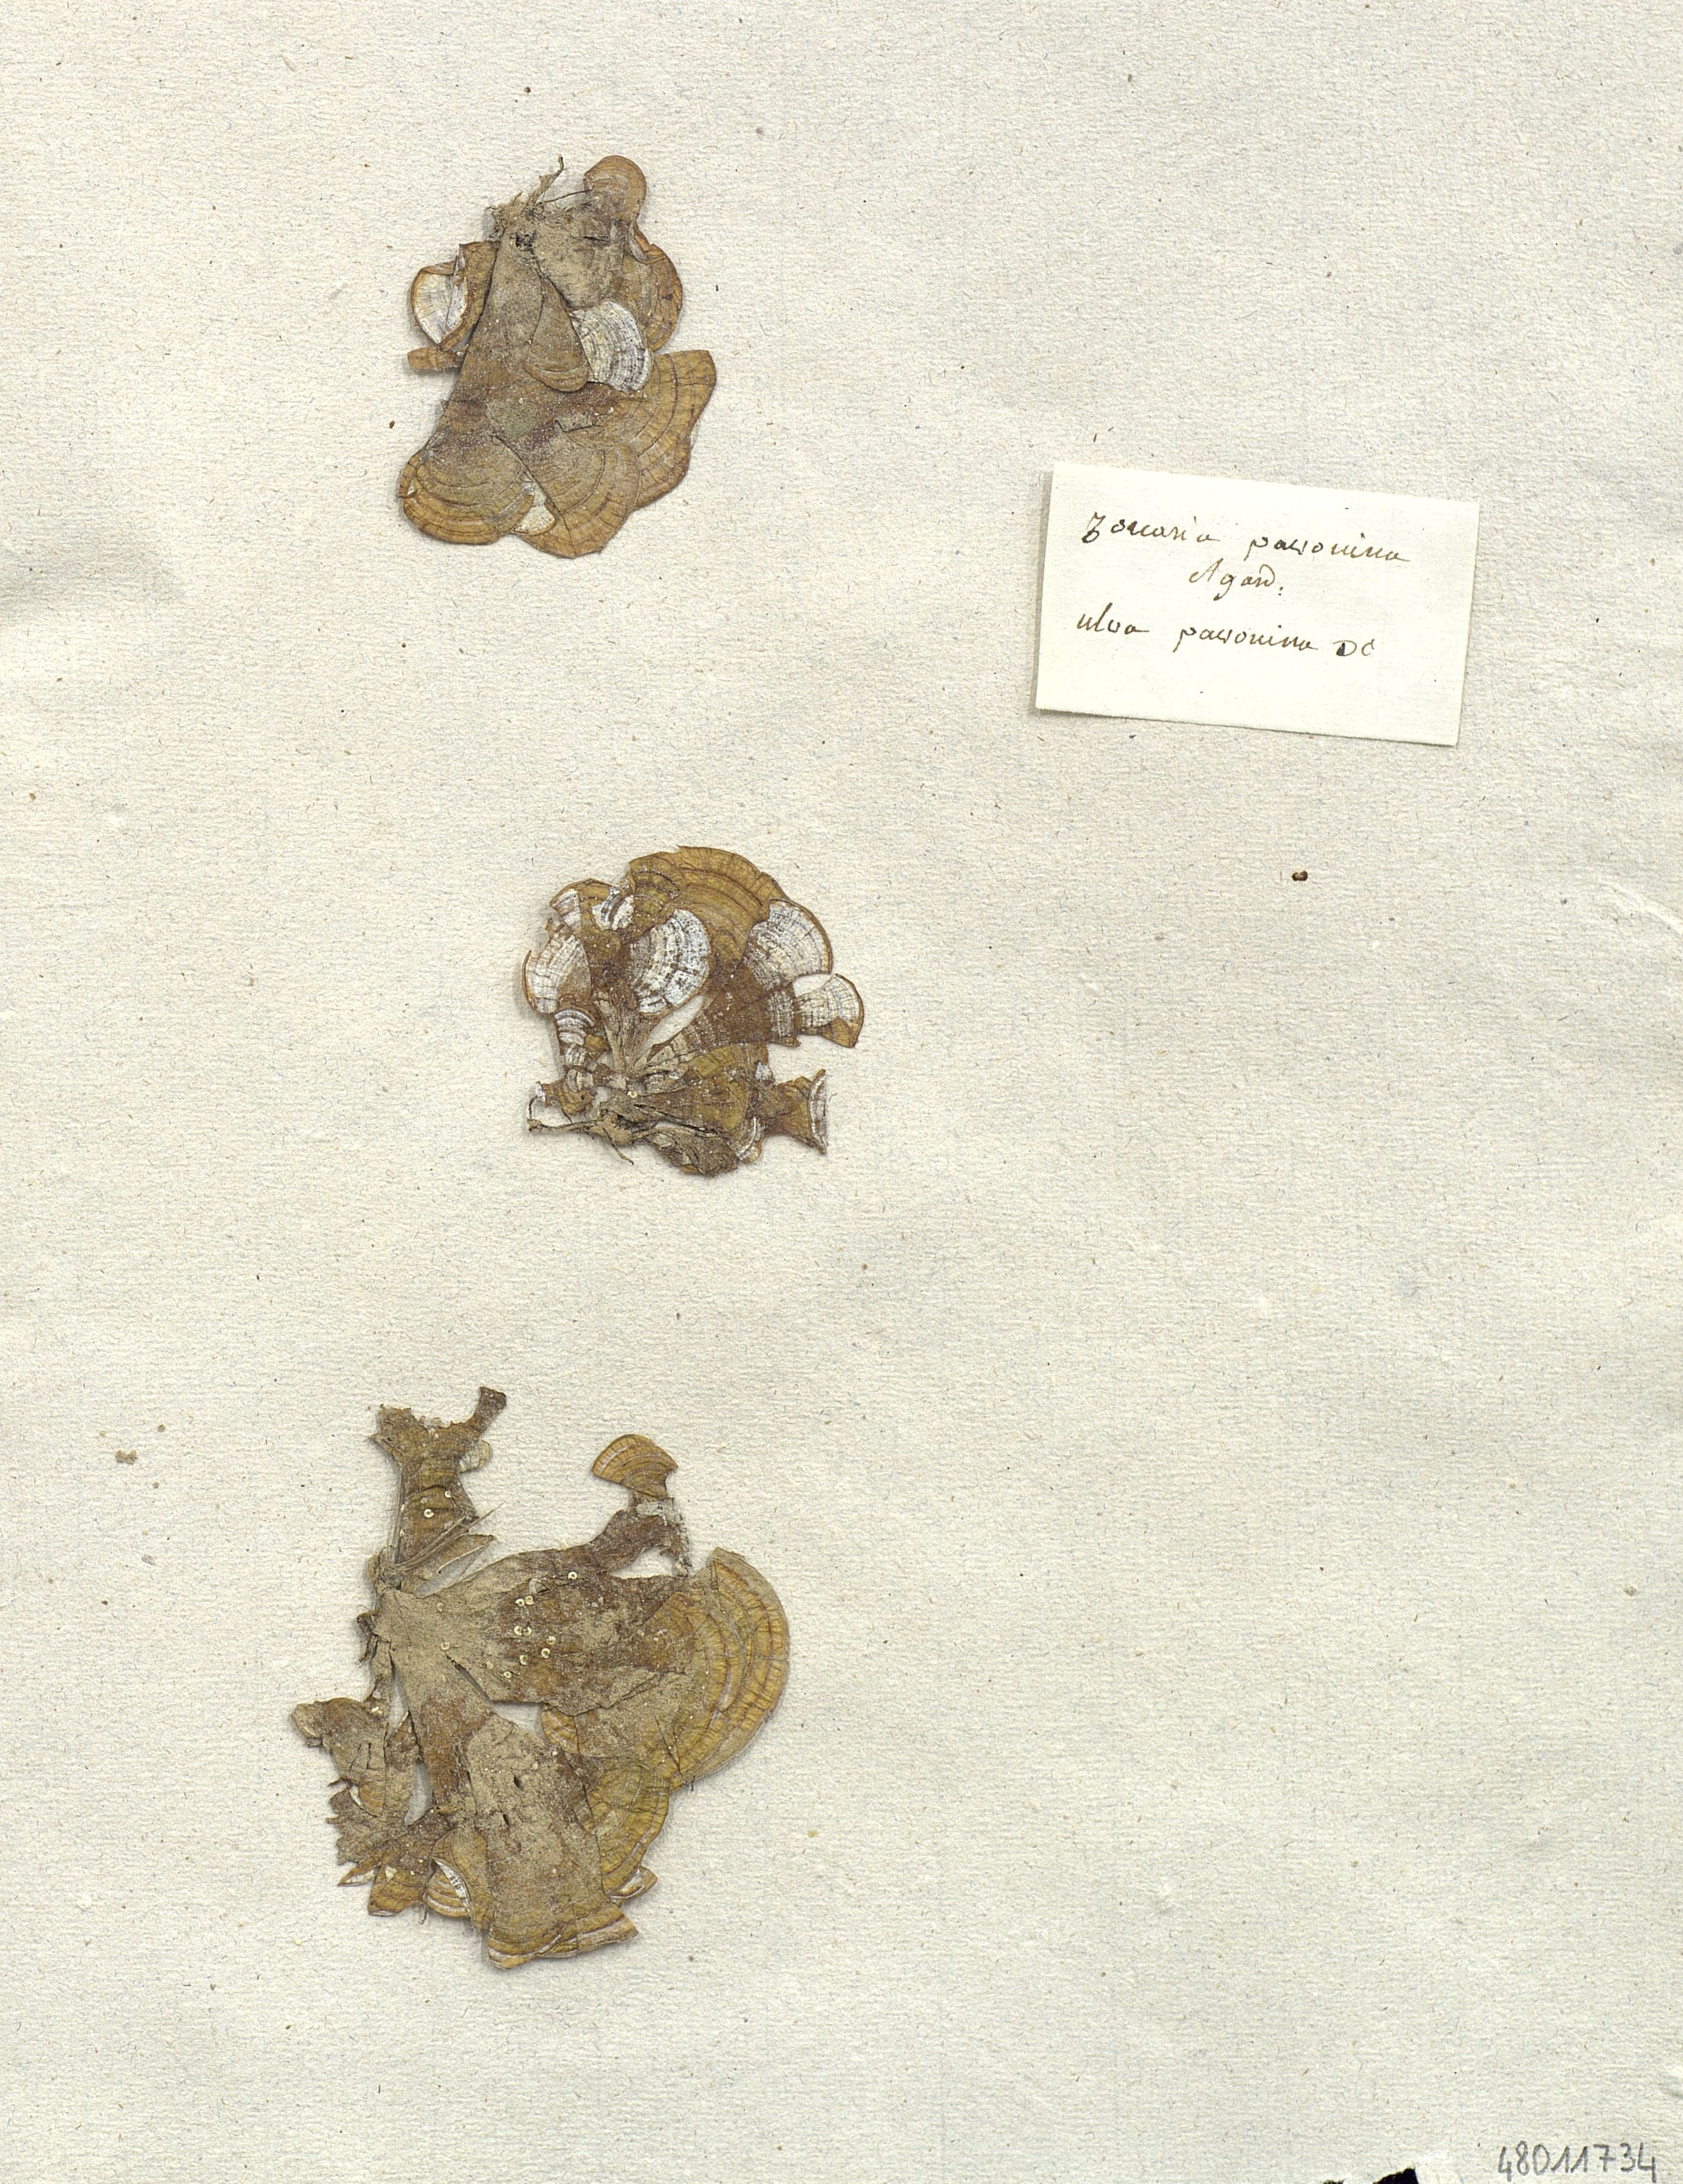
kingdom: Chromista
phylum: Ochrophyta
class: Phaeophyceae
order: Dictyotales
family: Dictyotaceae
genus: Padina
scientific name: Padina pavonica
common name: Turkey feather alga
